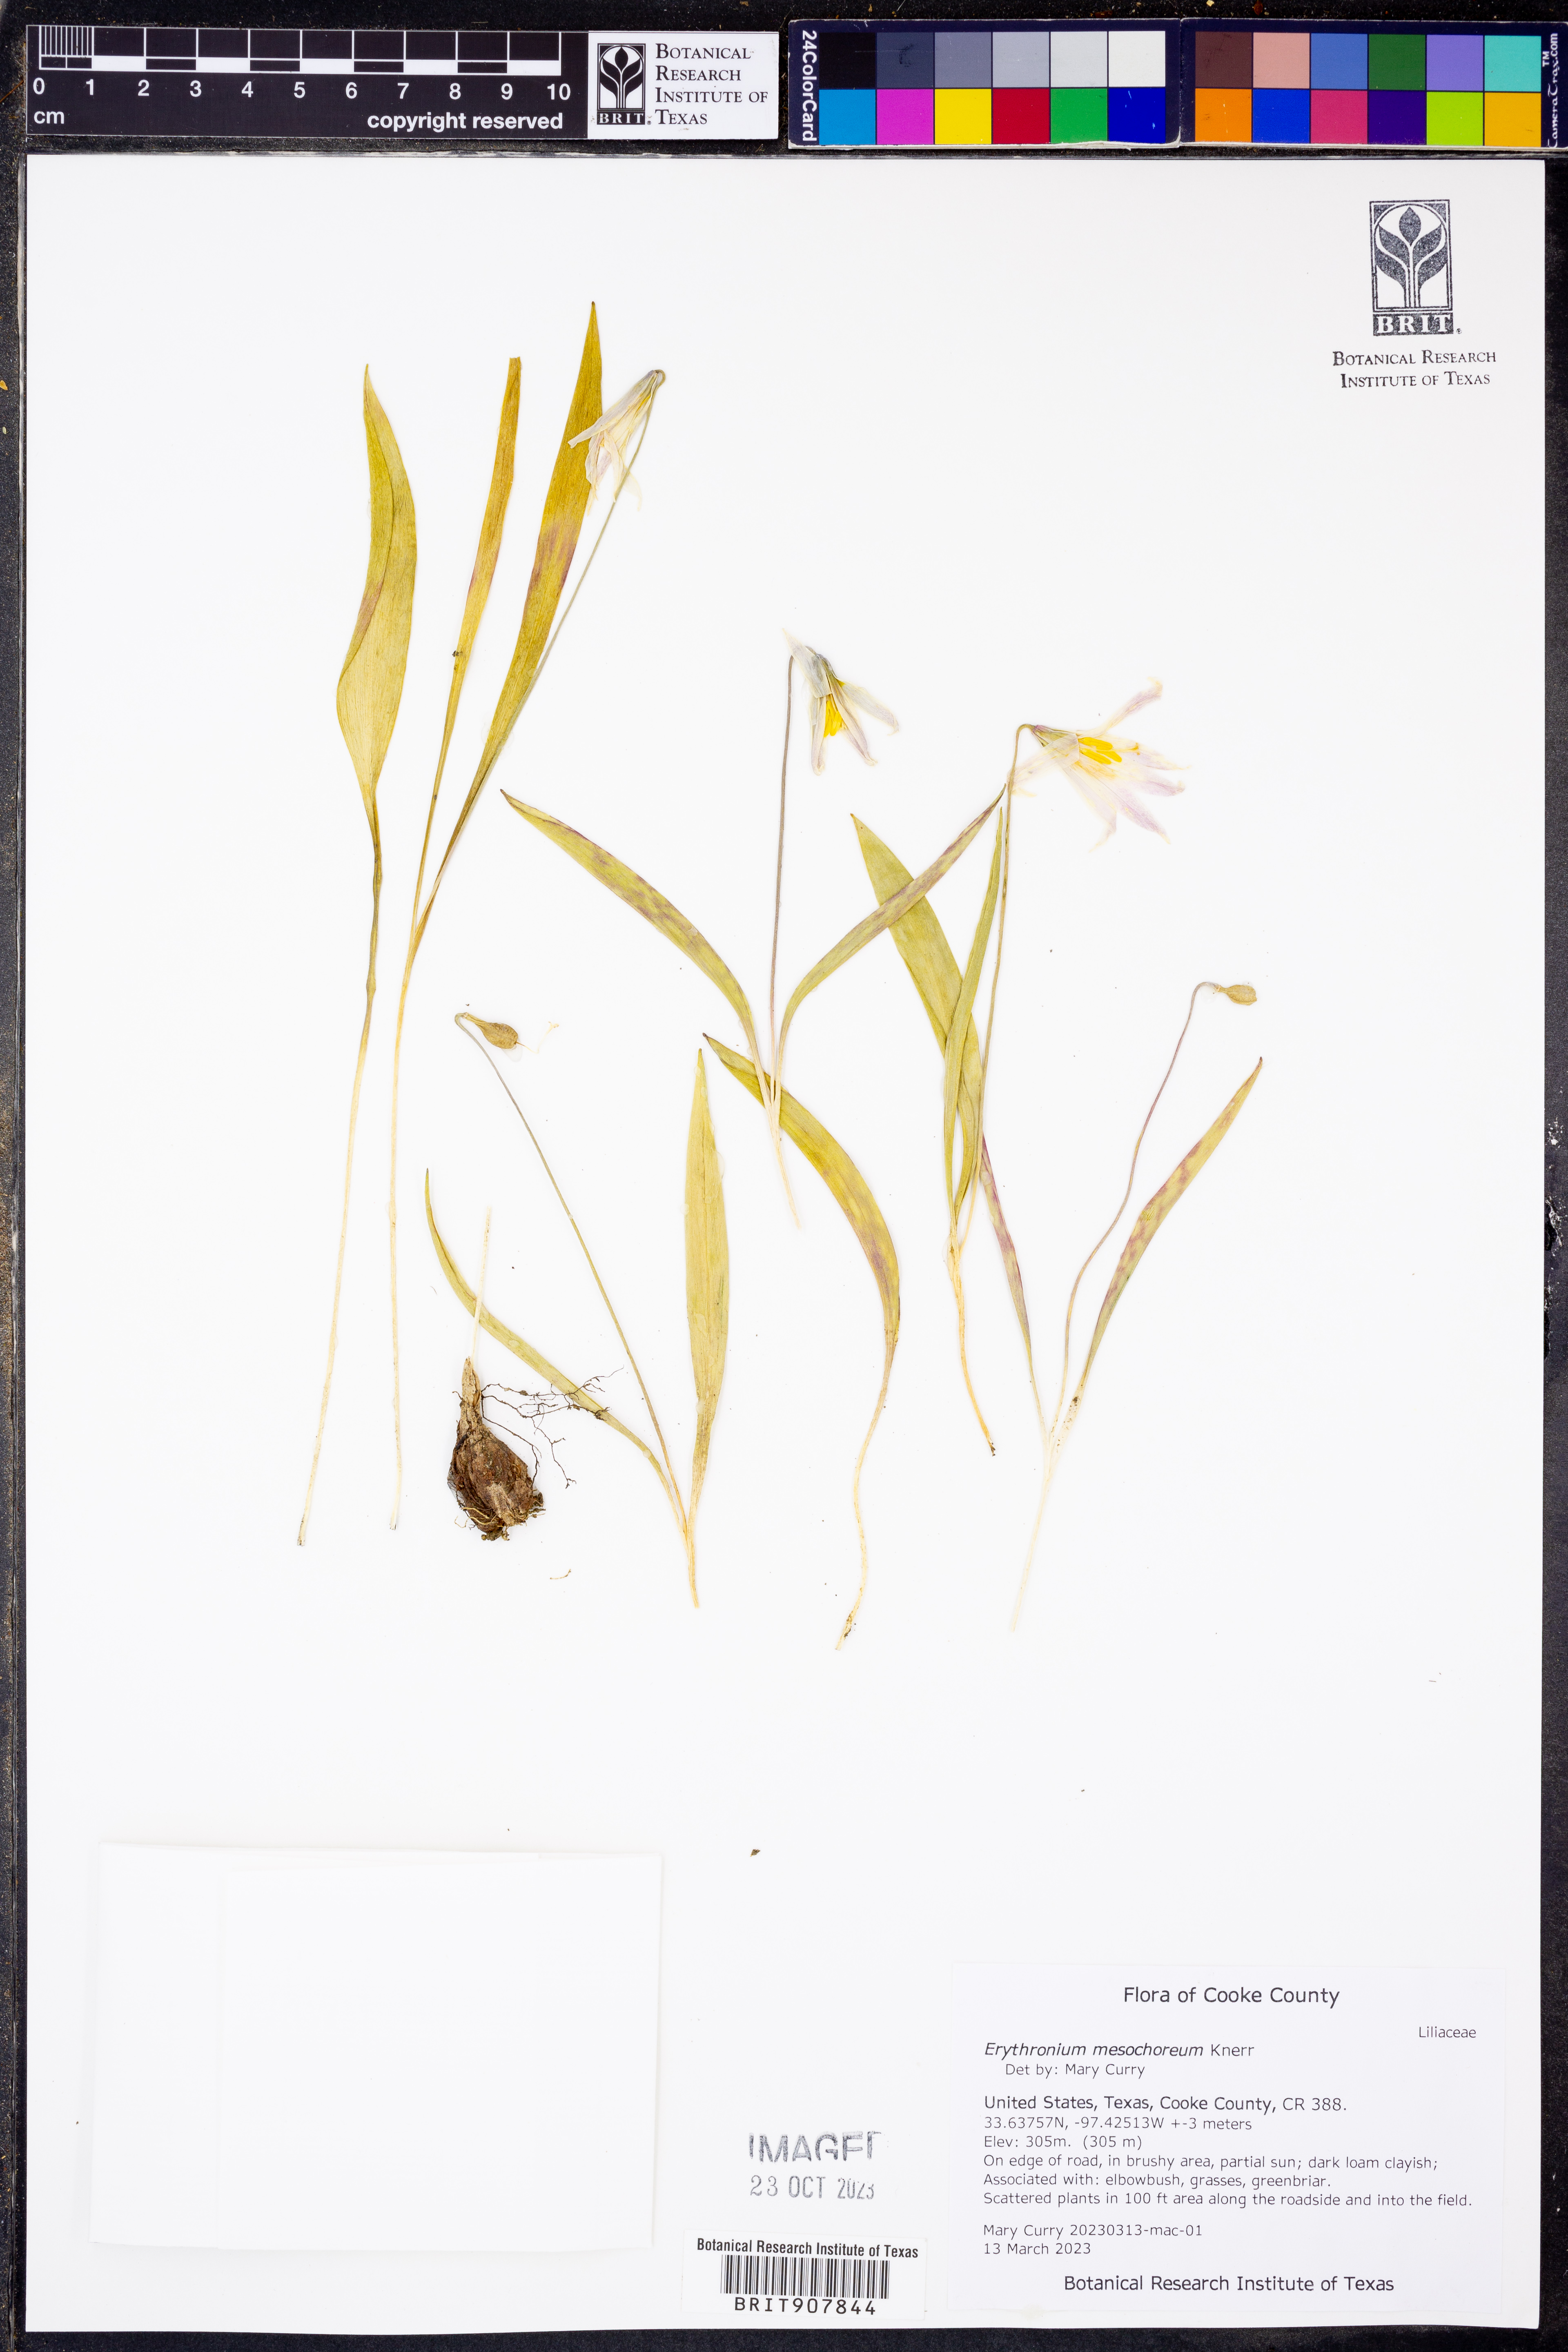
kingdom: Plantae
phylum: Tracheophyta
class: Liliopsida
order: Liliales
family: Liliaceae
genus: Erythronium
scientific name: Erythronium mesochoreum
